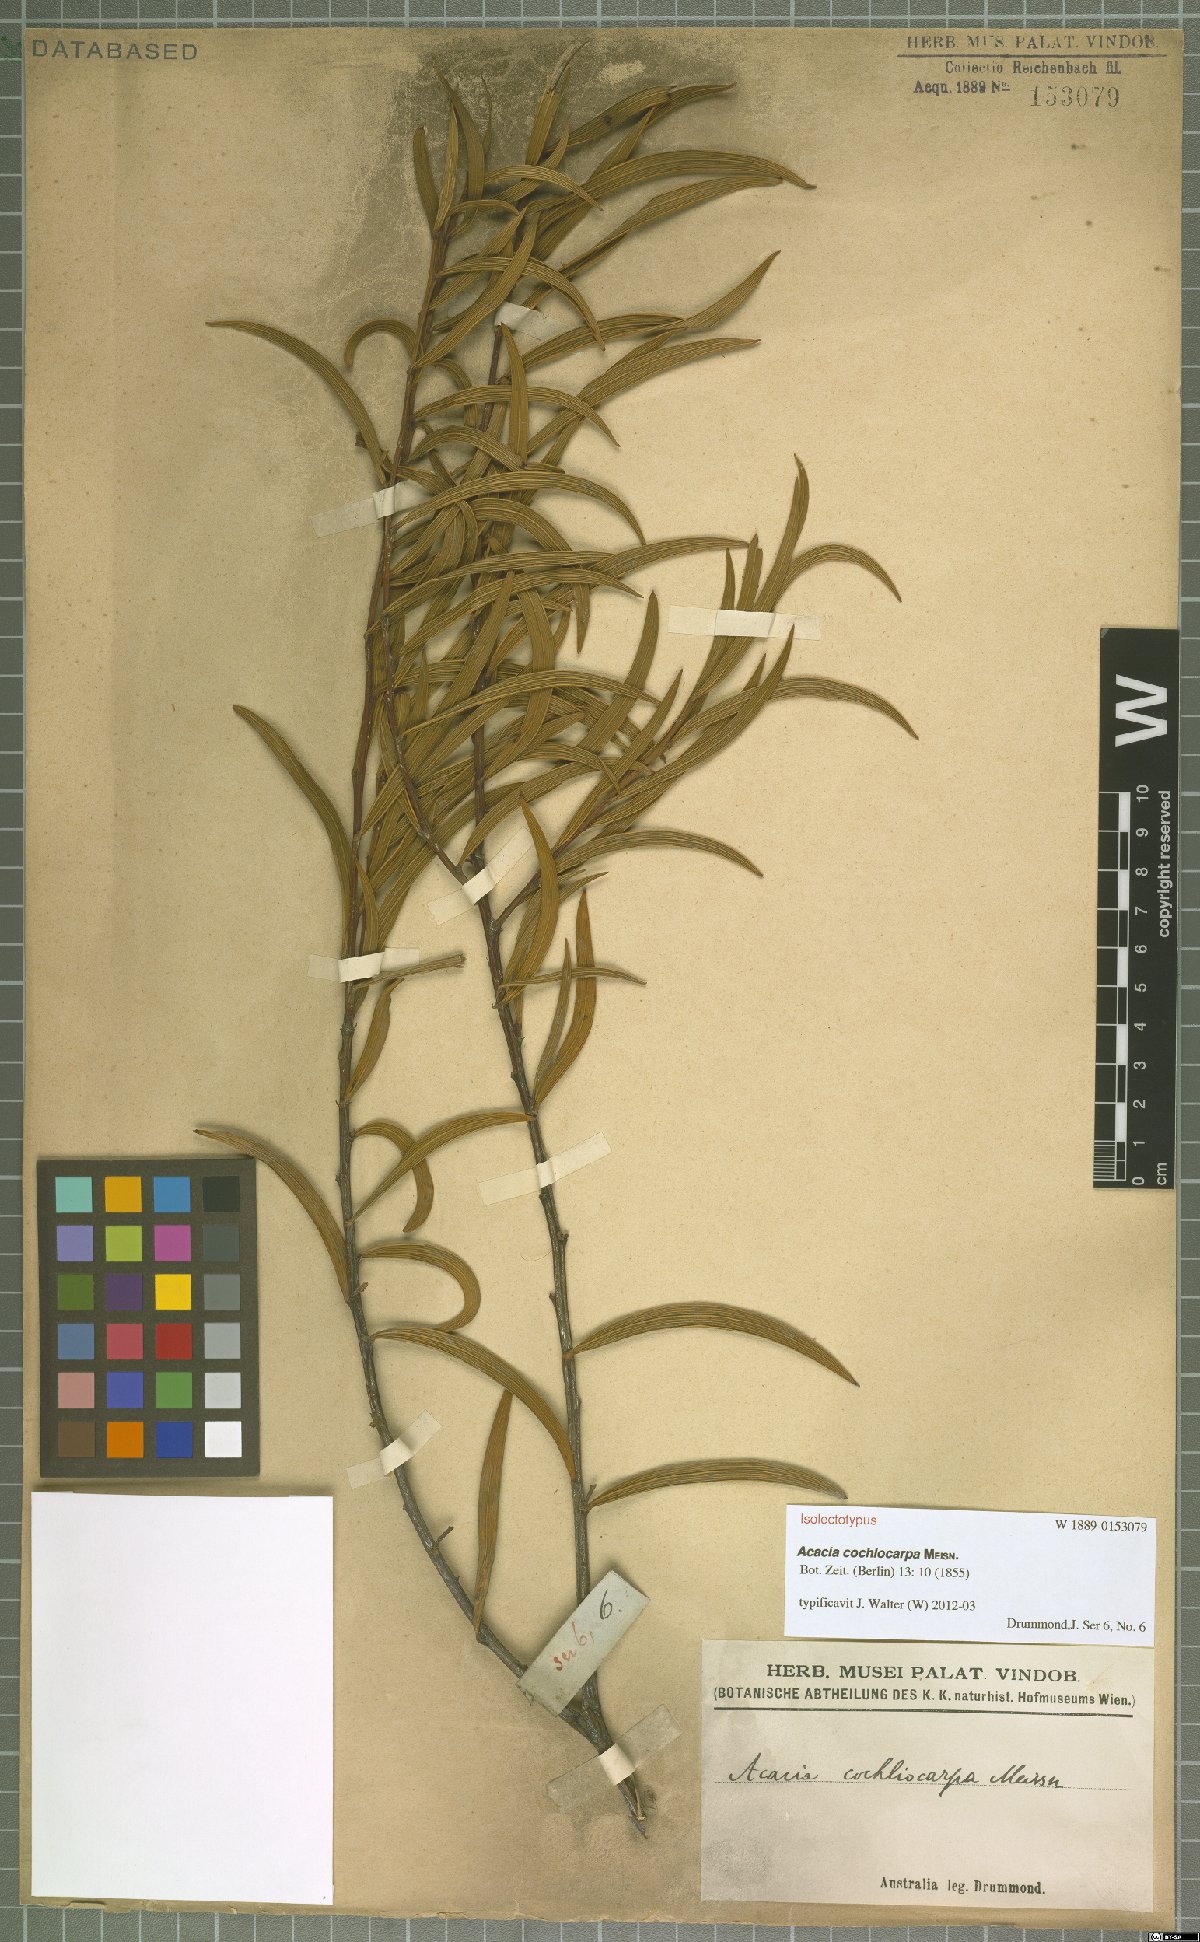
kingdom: Plantae
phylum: Tracheophyta
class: Magnoliopsida
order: Fabales
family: Fabaceae
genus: Acacia
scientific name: Acacia cochlocarpa
